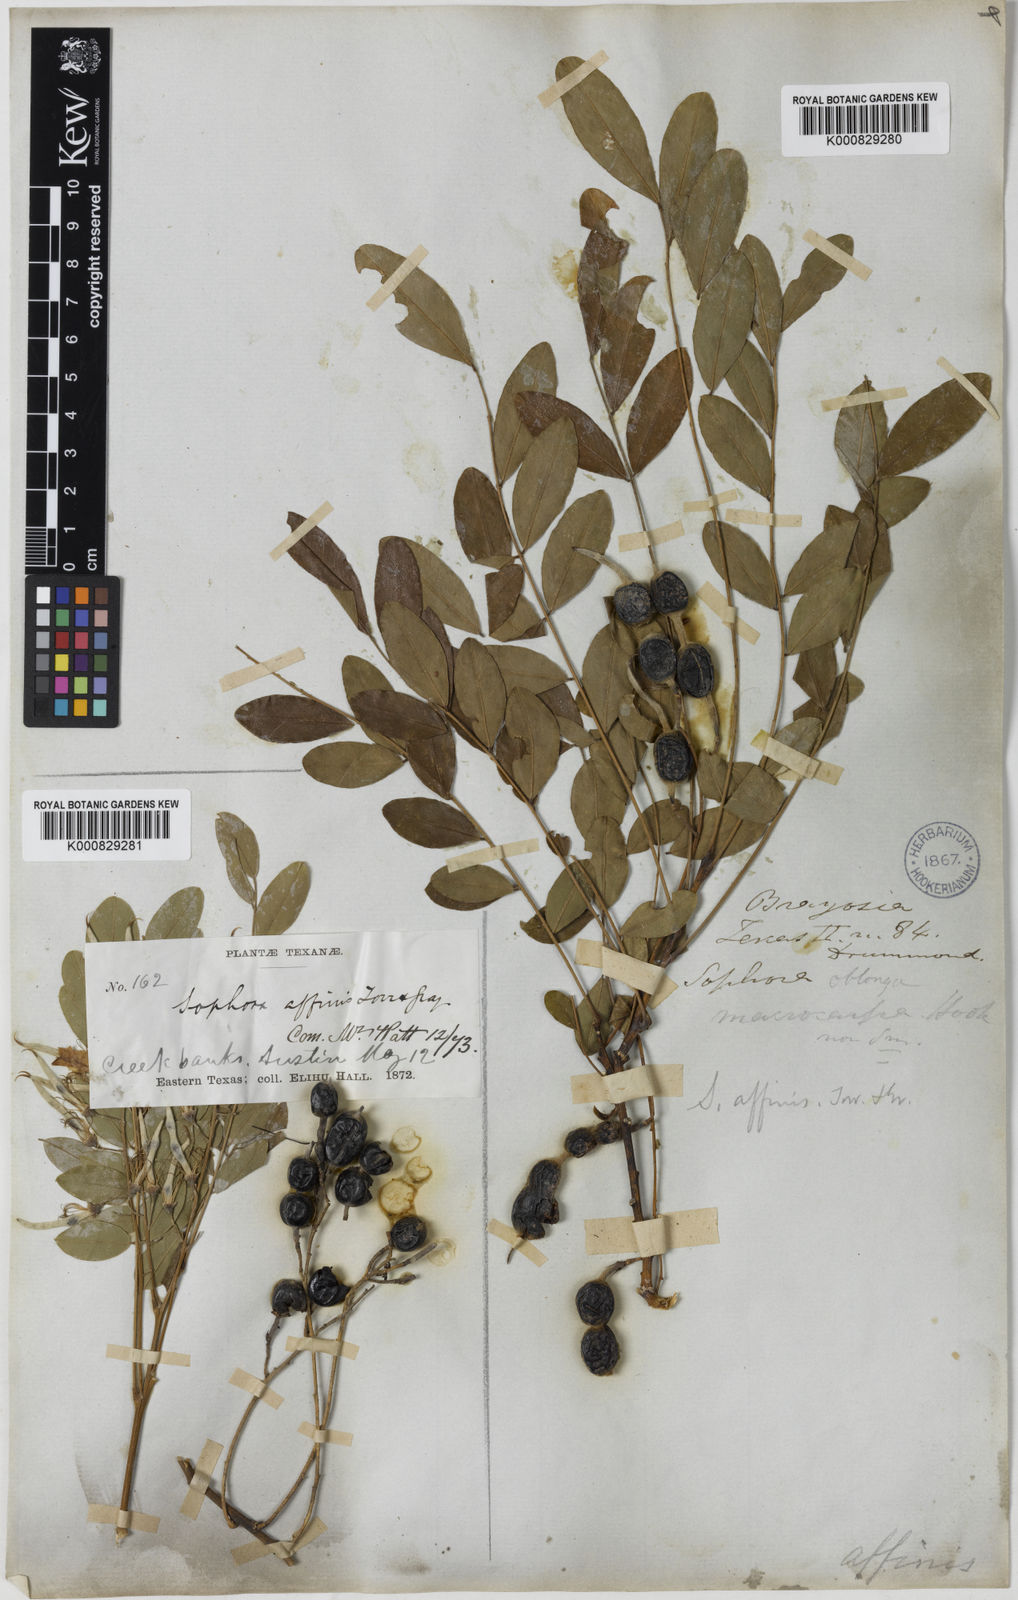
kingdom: Plantae
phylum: Tracheophyta
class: Magnoliopsida
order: Fabales
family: Fabaceae
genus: Styphnolobium
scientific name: Styphnolobium affine
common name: Texas sophora
